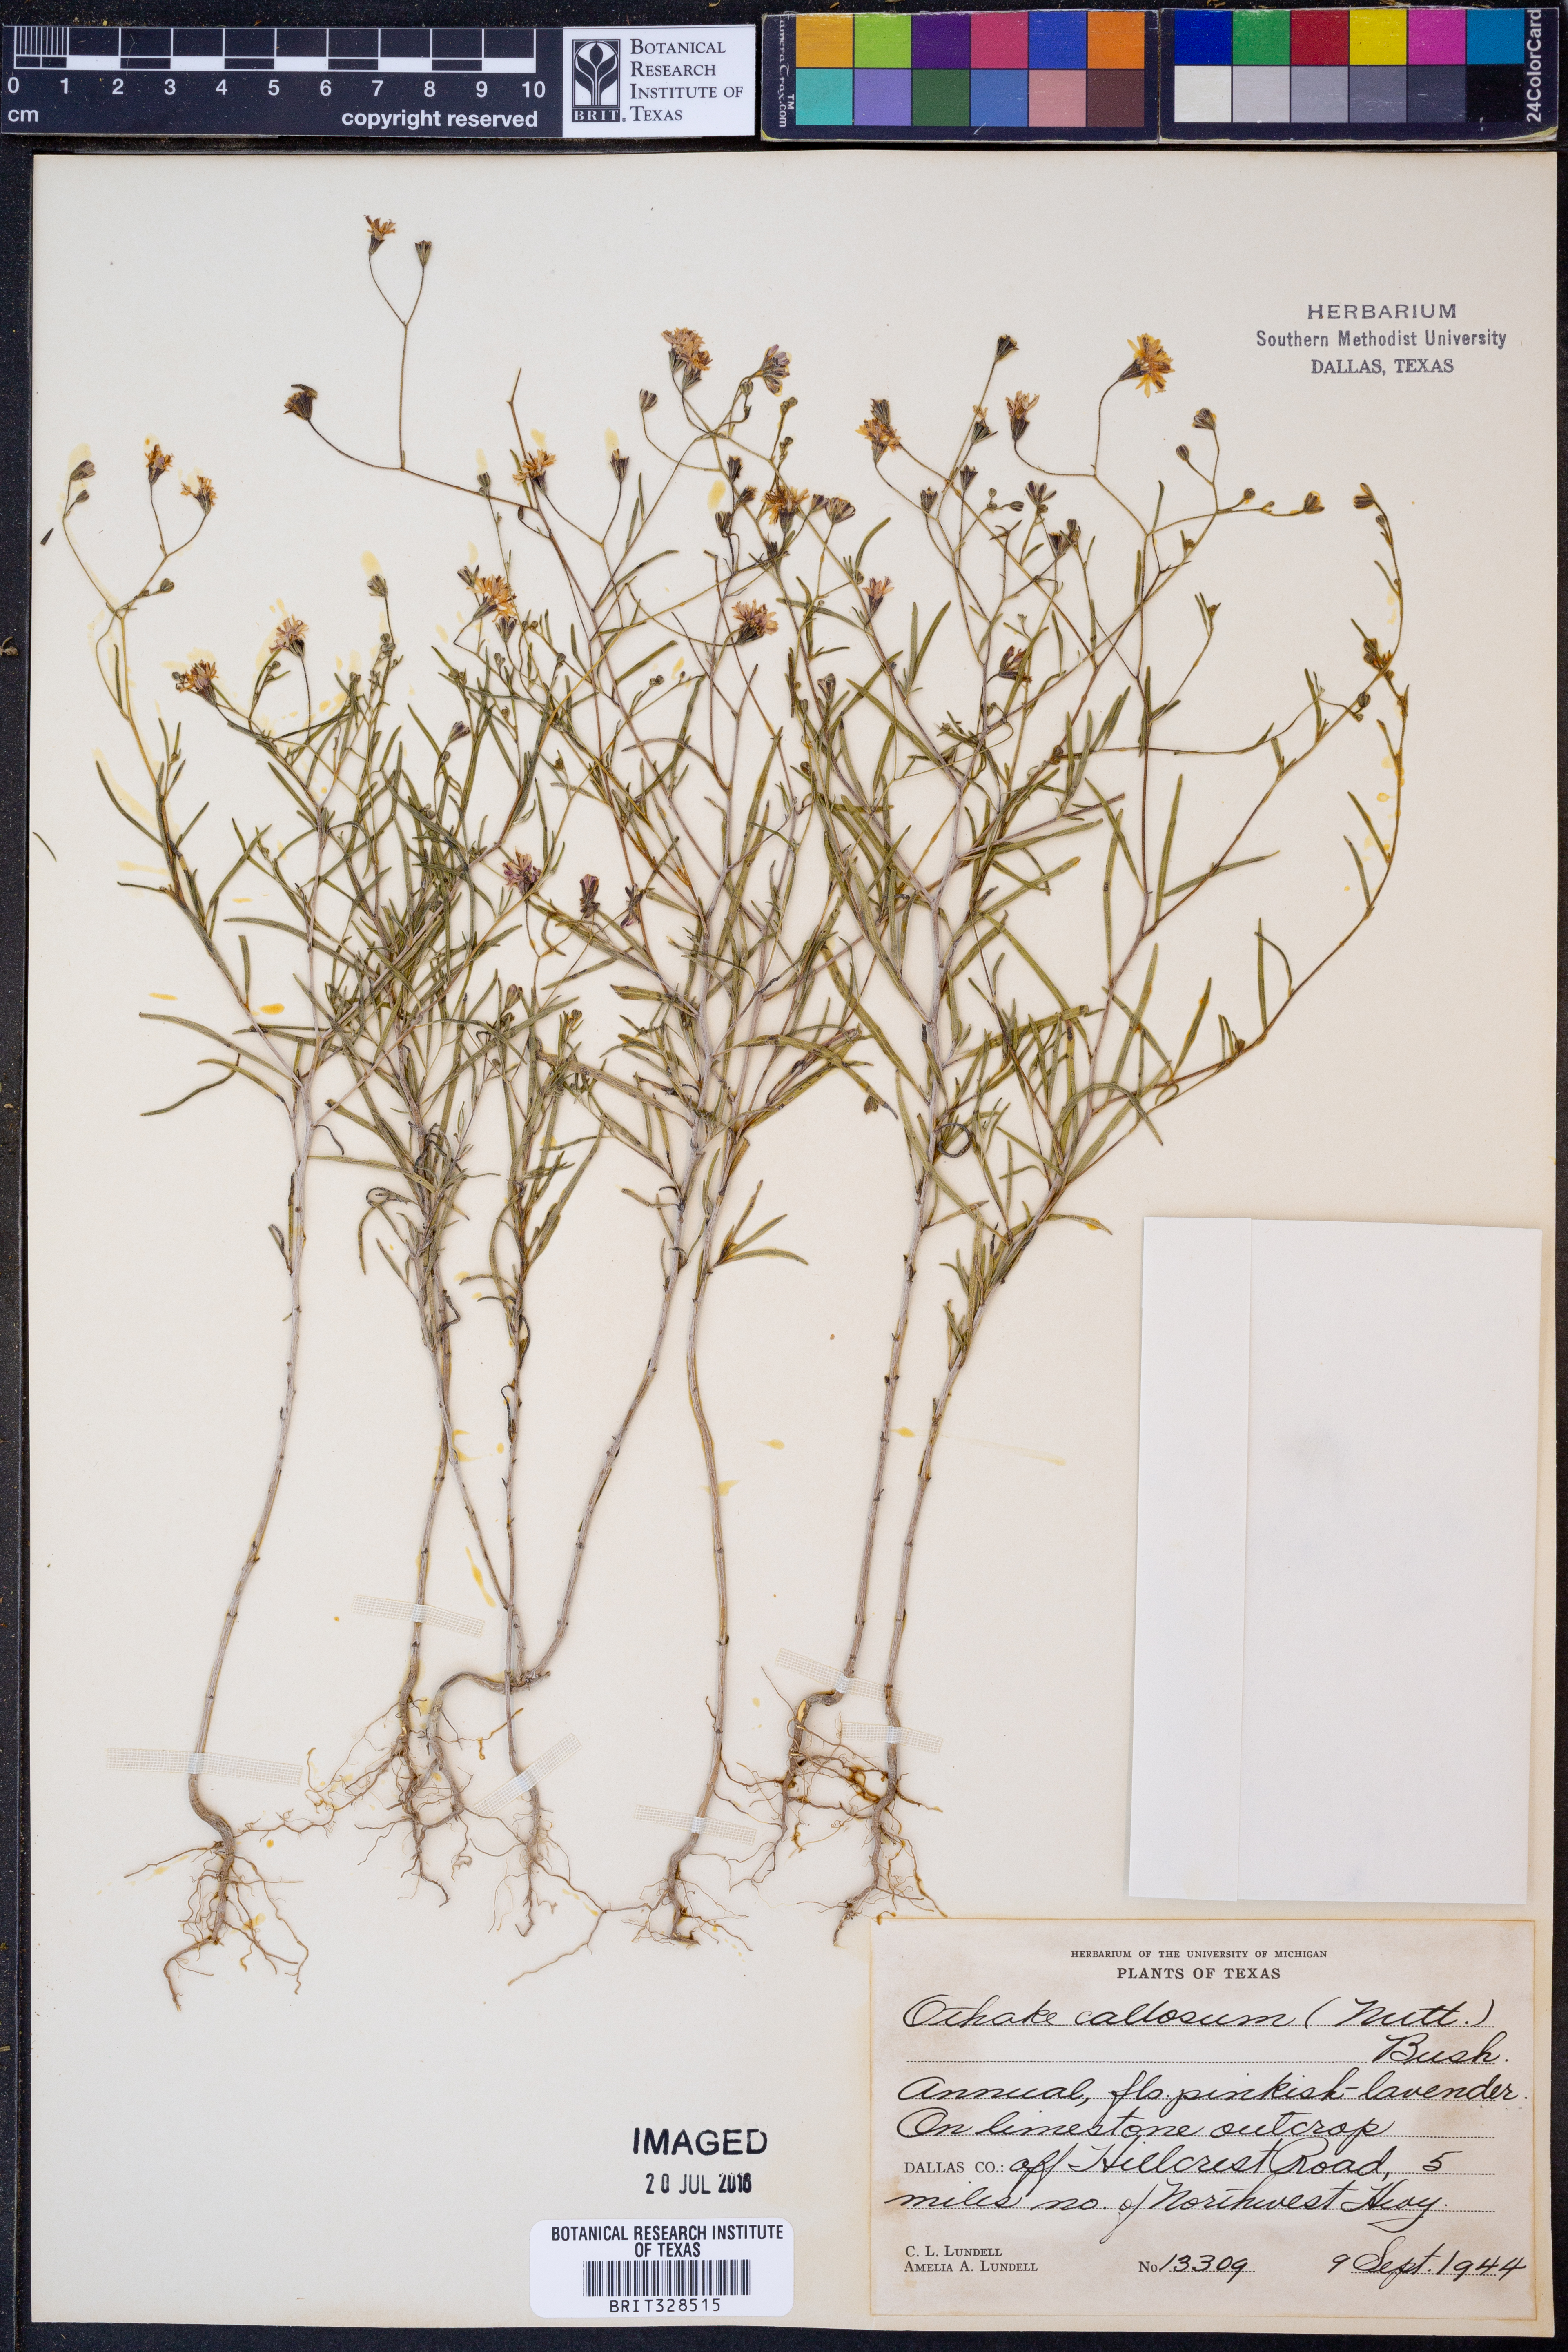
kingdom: Plantae
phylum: Tracheophyta
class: Magnoliopsida
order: Asterales
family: Asteraceae
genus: Palafoxia
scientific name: Palafoxia callosa
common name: Small palafox
